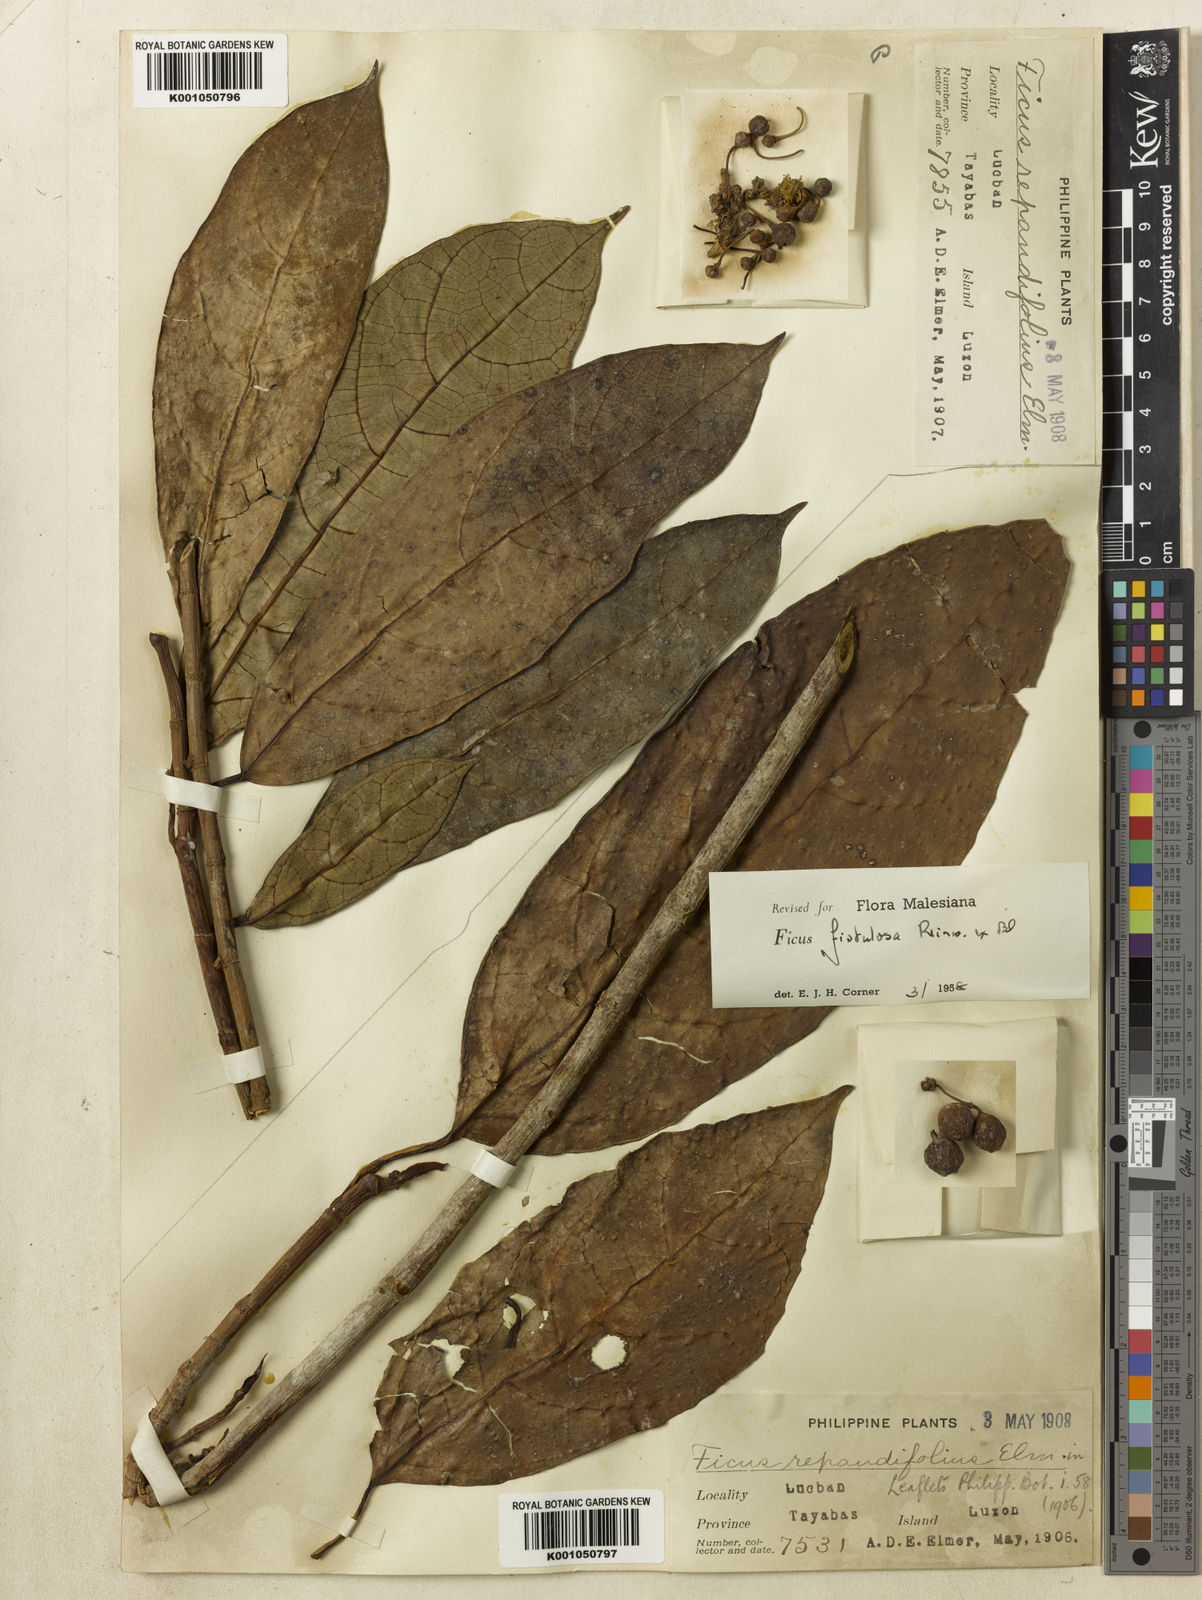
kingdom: Plantae
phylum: Tracheophyta
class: Magnoliopsida
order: Rosales
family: Moraceae
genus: Ficus
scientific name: Ficus fistulosa
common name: Figs
